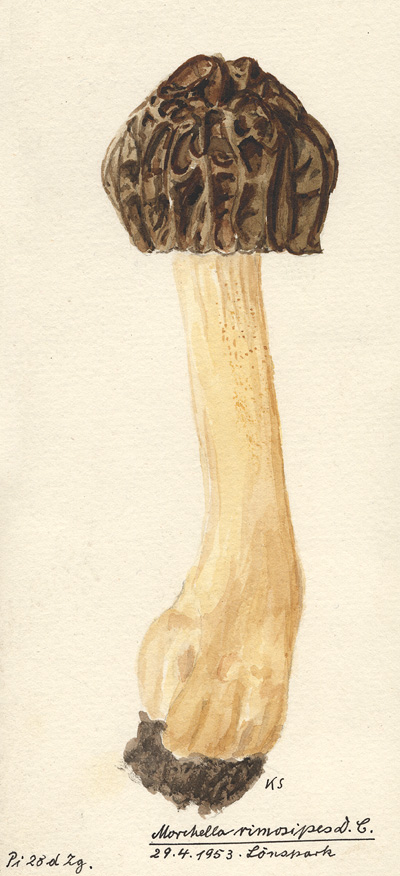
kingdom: Fungi
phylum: Ascomycota
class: Pezizomycetes
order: Pezizales
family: Morchellaceae
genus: Morchella
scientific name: Morchella semilibera
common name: Semifree morel
